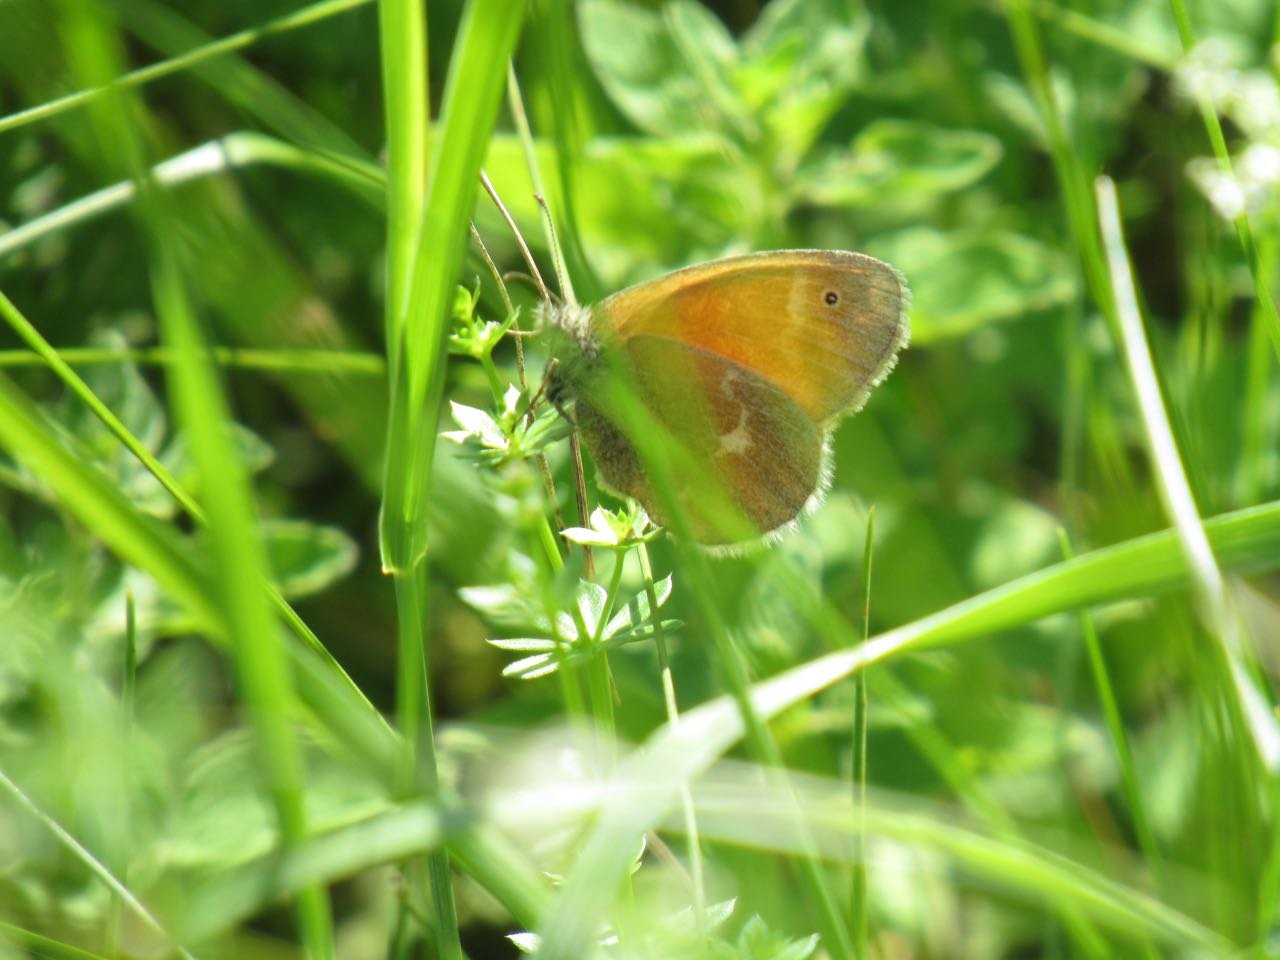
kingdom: Animalia
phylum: Arthropoda
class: Insecta
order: Lepidoptera
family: Nymphalidae
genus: Coenonympha
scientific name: Coenonympha tullia
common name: Large Heath
